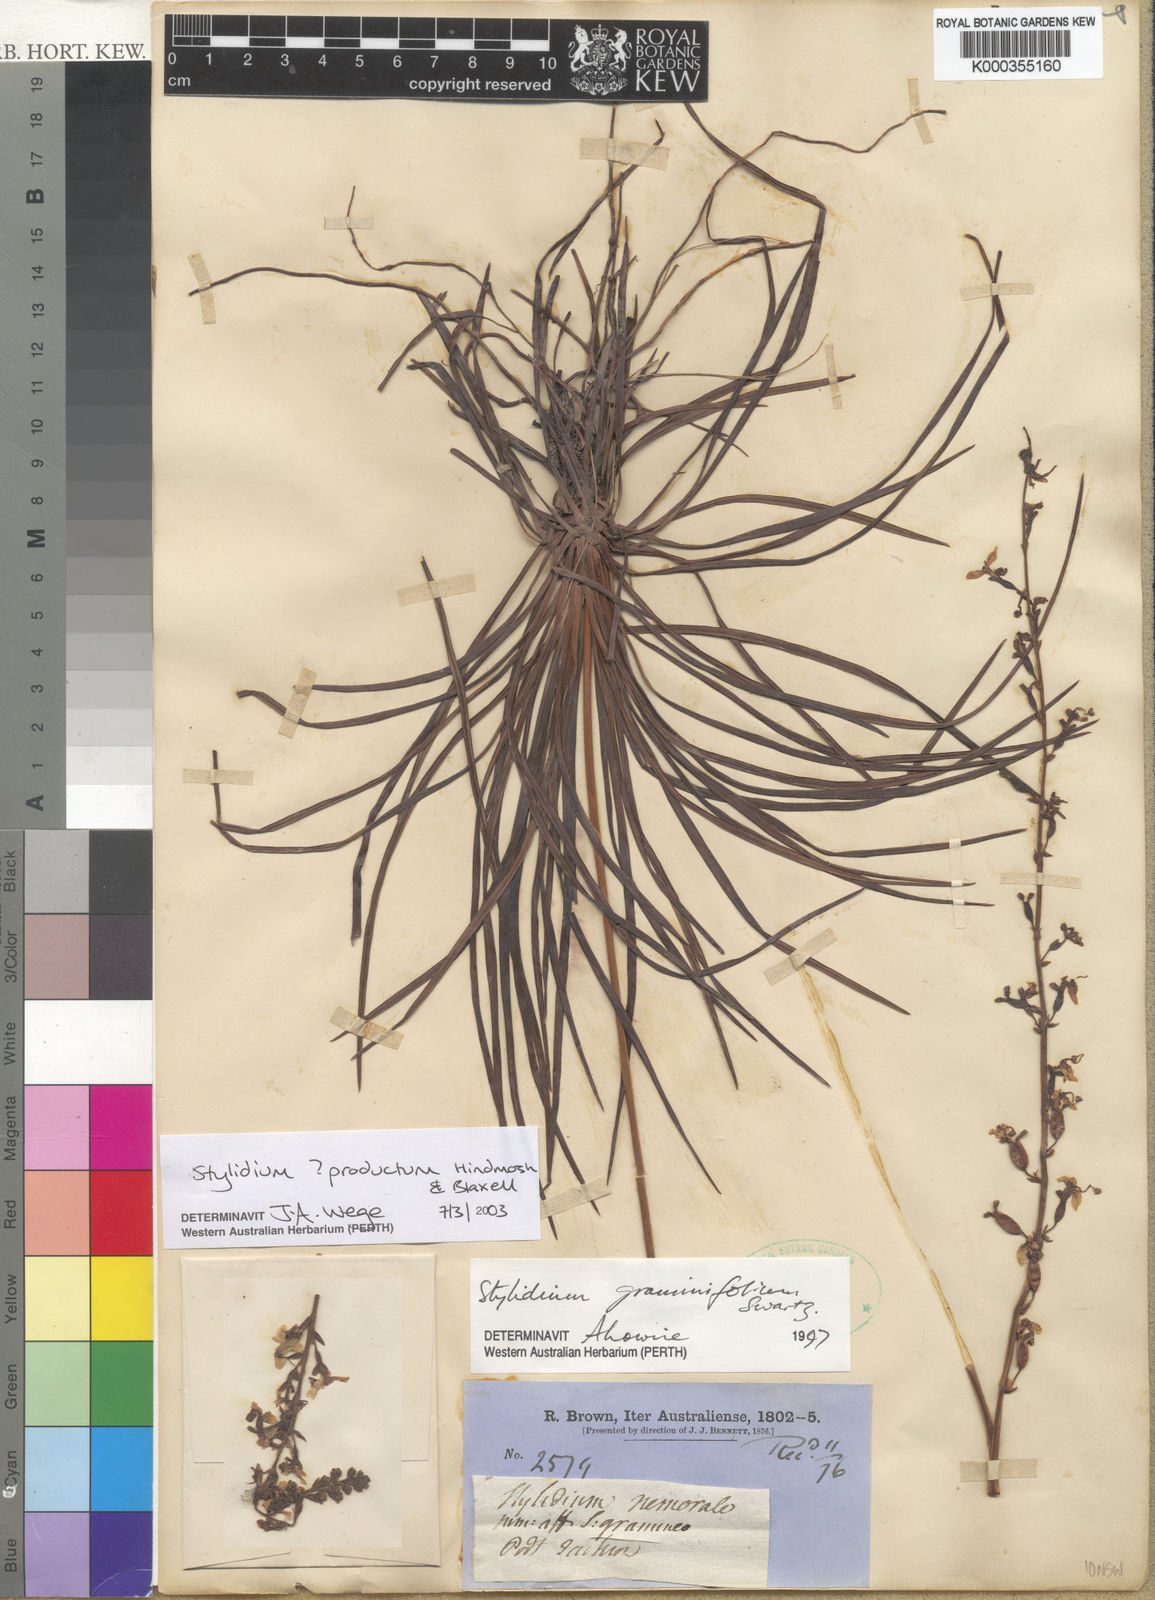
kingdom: Plantae
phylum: Tracheophyta
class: Magnoliopsida
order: Asterales
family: Stylidiaceae
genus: Stylidium
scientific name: Stylidium productum
